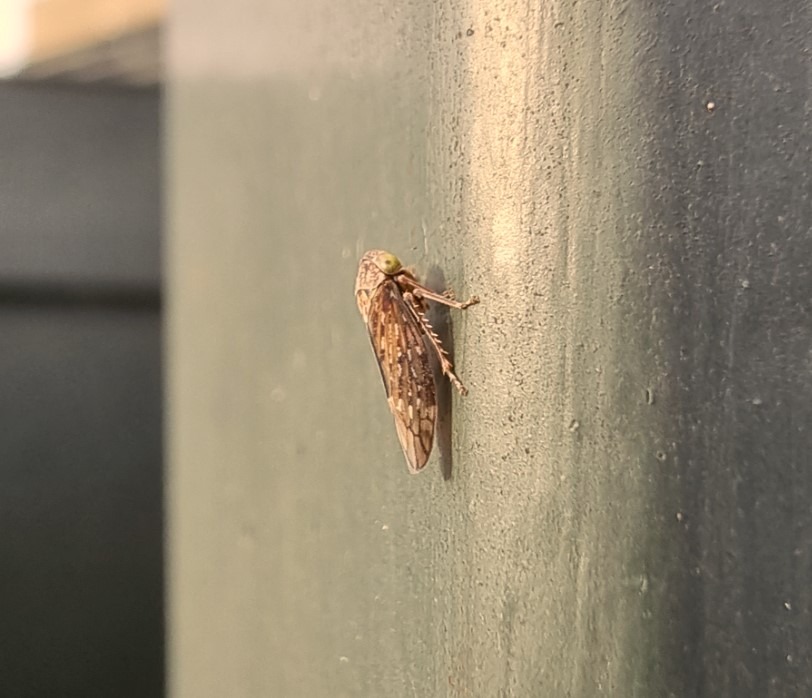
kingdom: Animalia
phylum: Arthropoda
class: Insecta
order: Hemiptera
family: Cicadellidae
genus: Acericerus
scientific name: Acericerus heydenii
